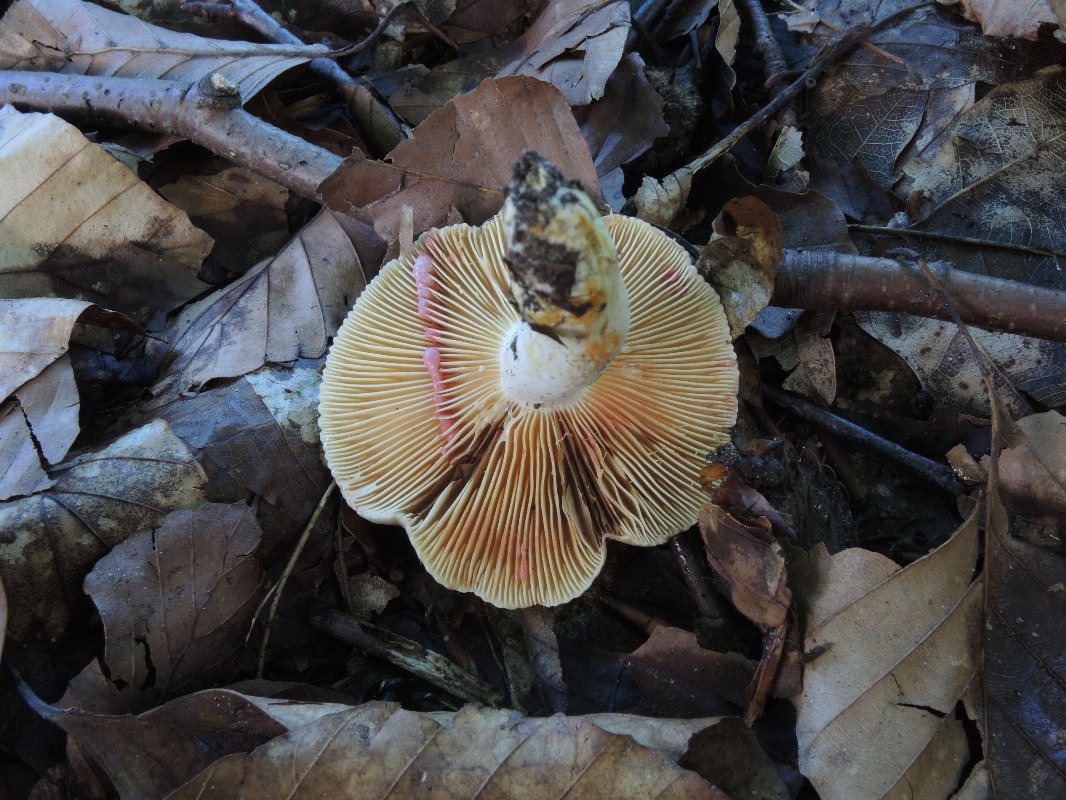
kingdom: Fungi
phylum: Basidiomycota
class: Agaricomycetes
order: Russulales
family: Russulaceae
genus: Lactarius
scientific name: Lactarius acris
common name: rosamælket mælkehat
